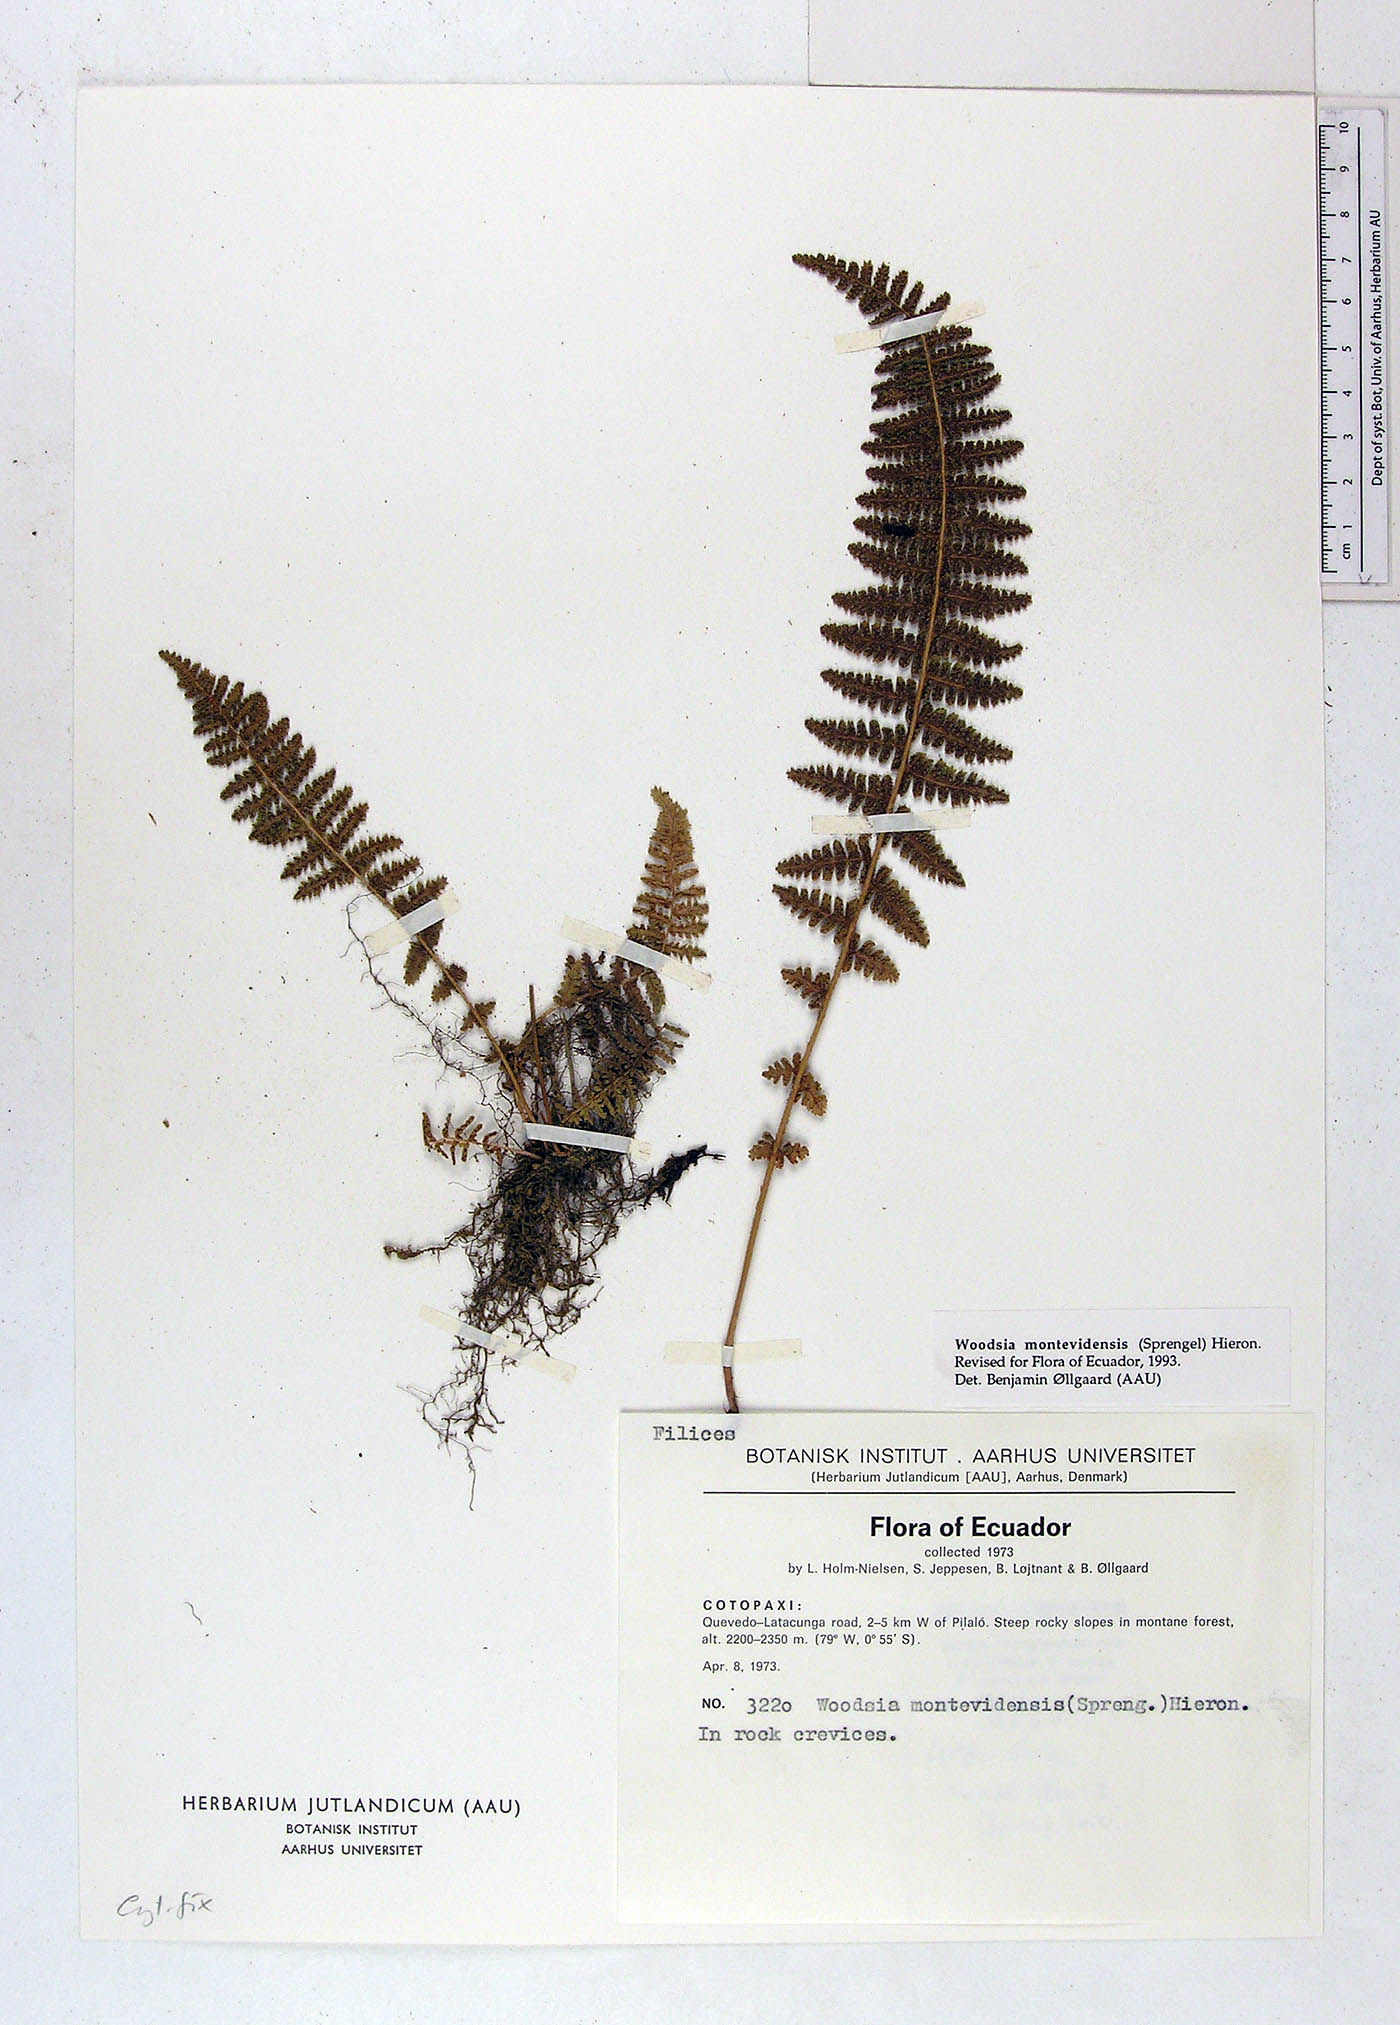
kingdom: Plantae
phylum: Tracheophyta
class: Polypodiopsida
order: Polypodiales
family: Woodsiaceae
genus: Physematium
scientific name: Physematium montevidense
